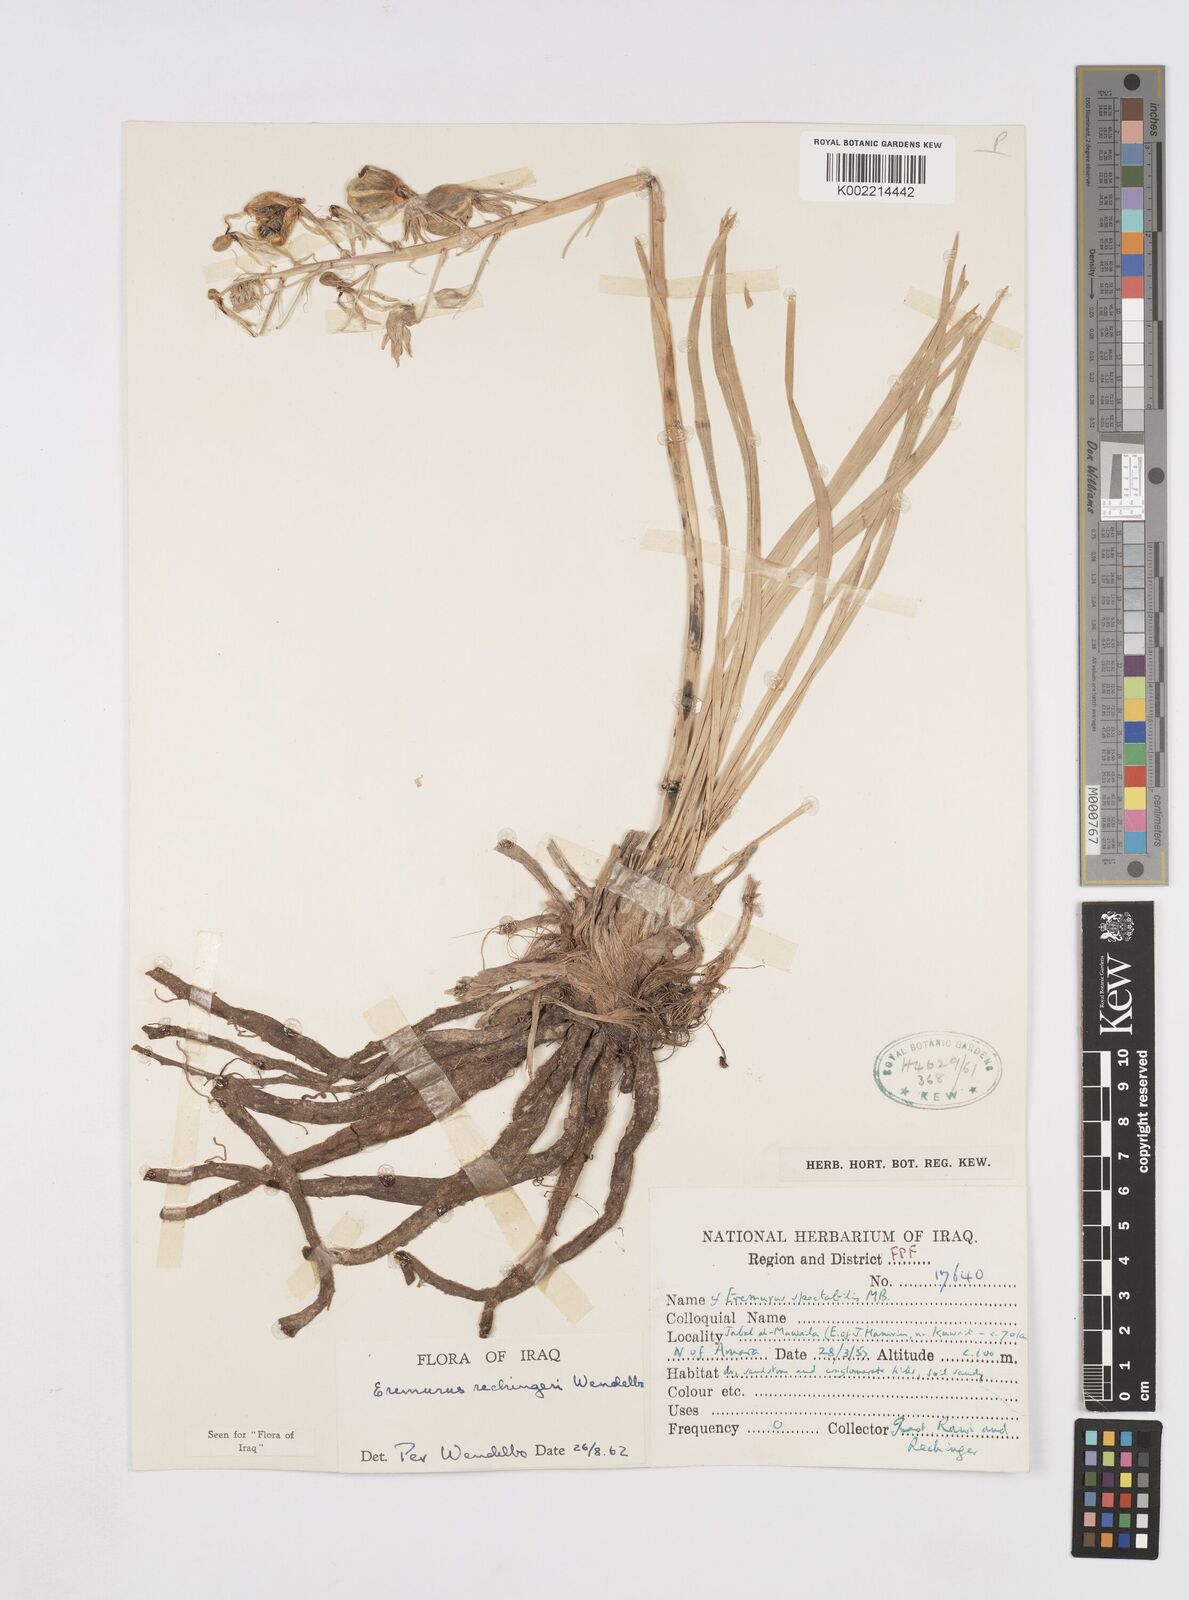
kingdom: Plantae
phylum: Tracheophyta
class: Liliopsida
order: Asparagales
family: Asphodelaceae
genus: Eremurus
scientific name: Eremurus rechingeri
